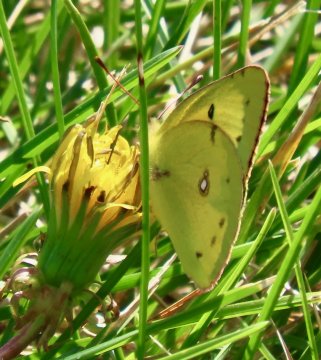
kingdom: Animalia
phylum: Arthropoda
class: Insecta
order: Lepidoptera
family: Pieridae
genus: Colias
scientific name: Colias philodice
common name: Clouded Sulphur
